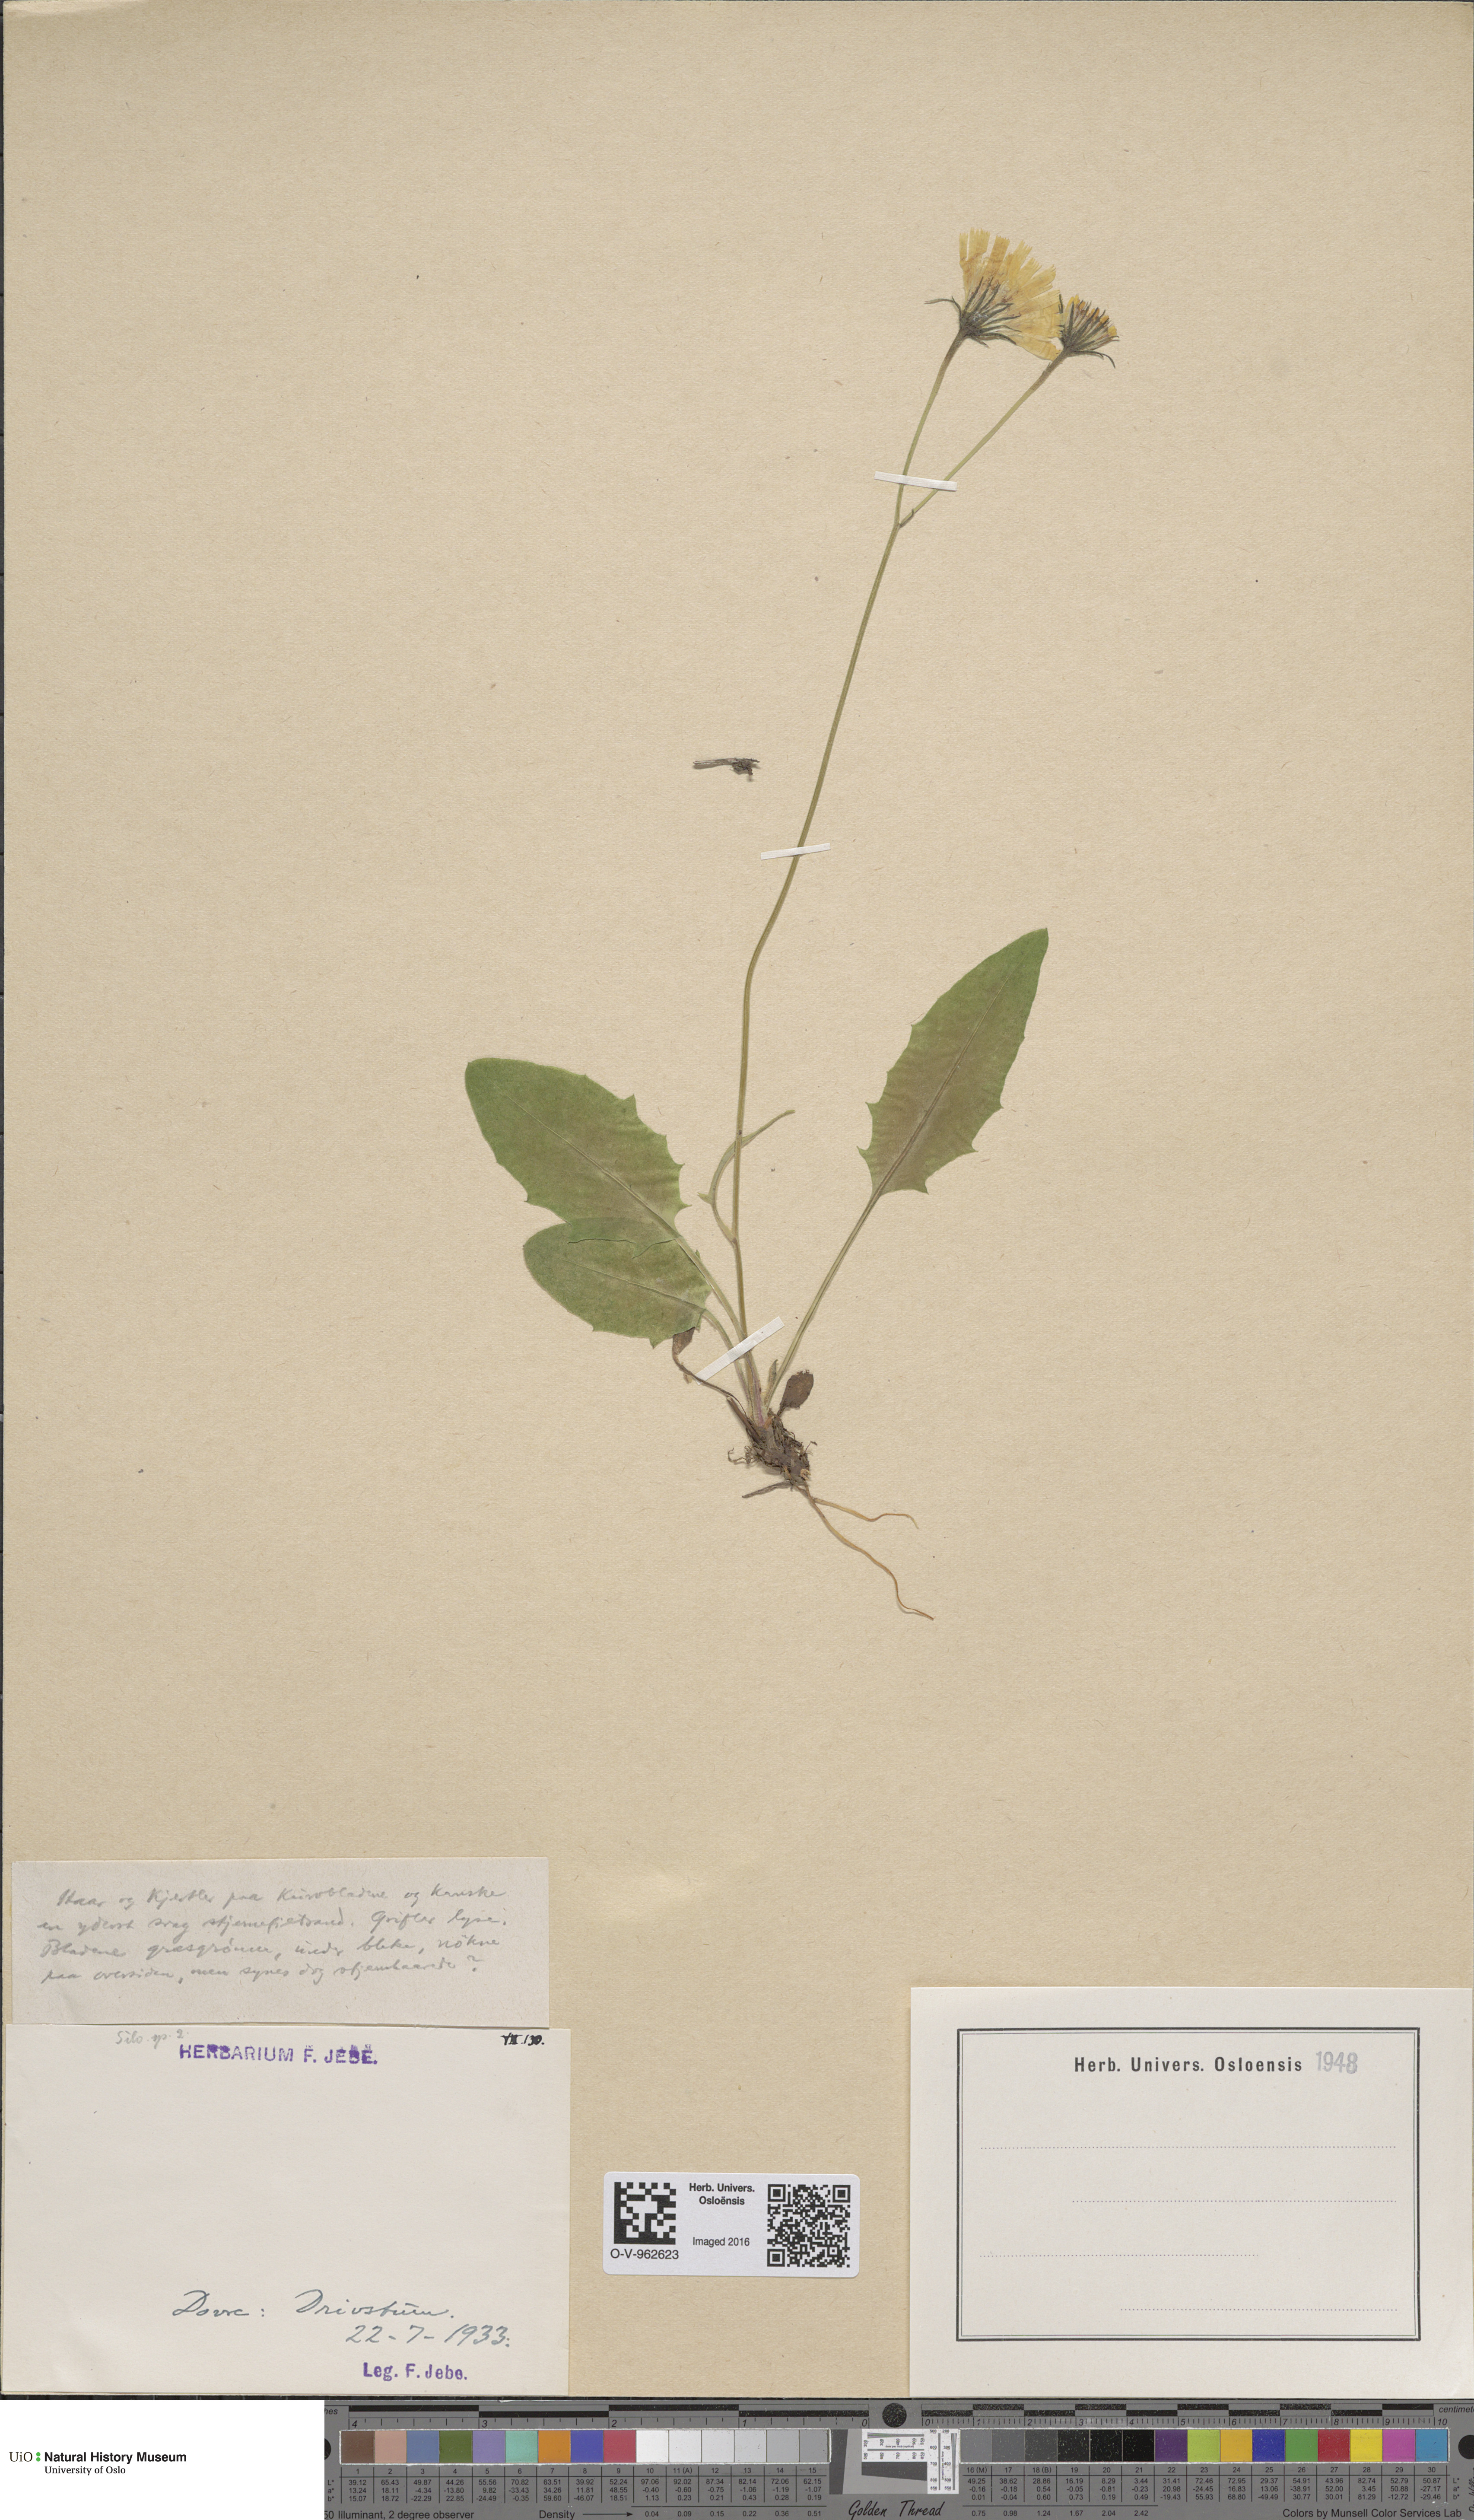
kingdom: Plantae
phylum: Tracheophyta
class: Magnoliopsida
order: Asterales
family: Asteraceae
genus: Hieracium
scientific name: Hieracium
